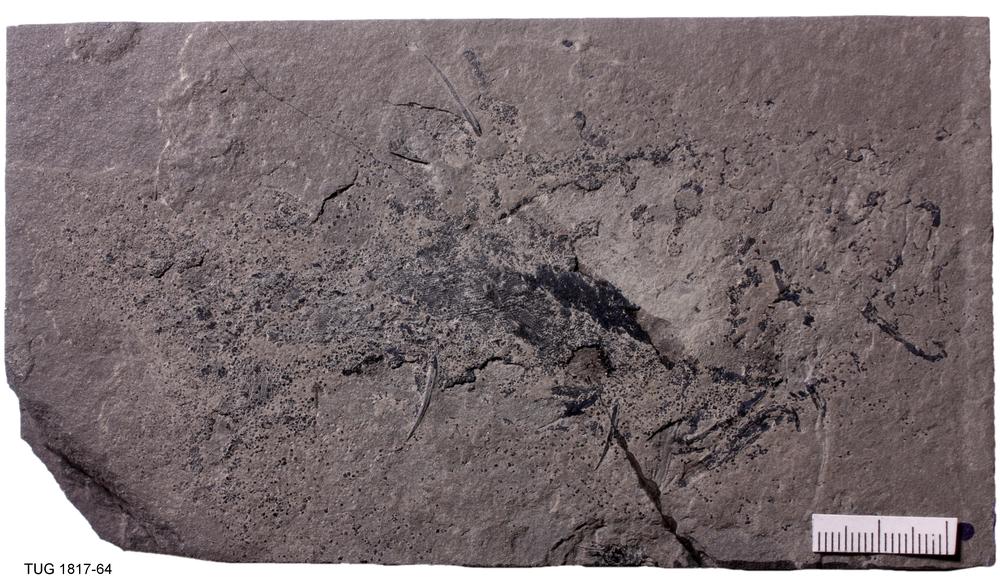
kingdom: Animalia
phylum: Chordata
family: Acanthodidae
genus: Cheiracanthus
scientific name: Cheiracanthus murchisoni
